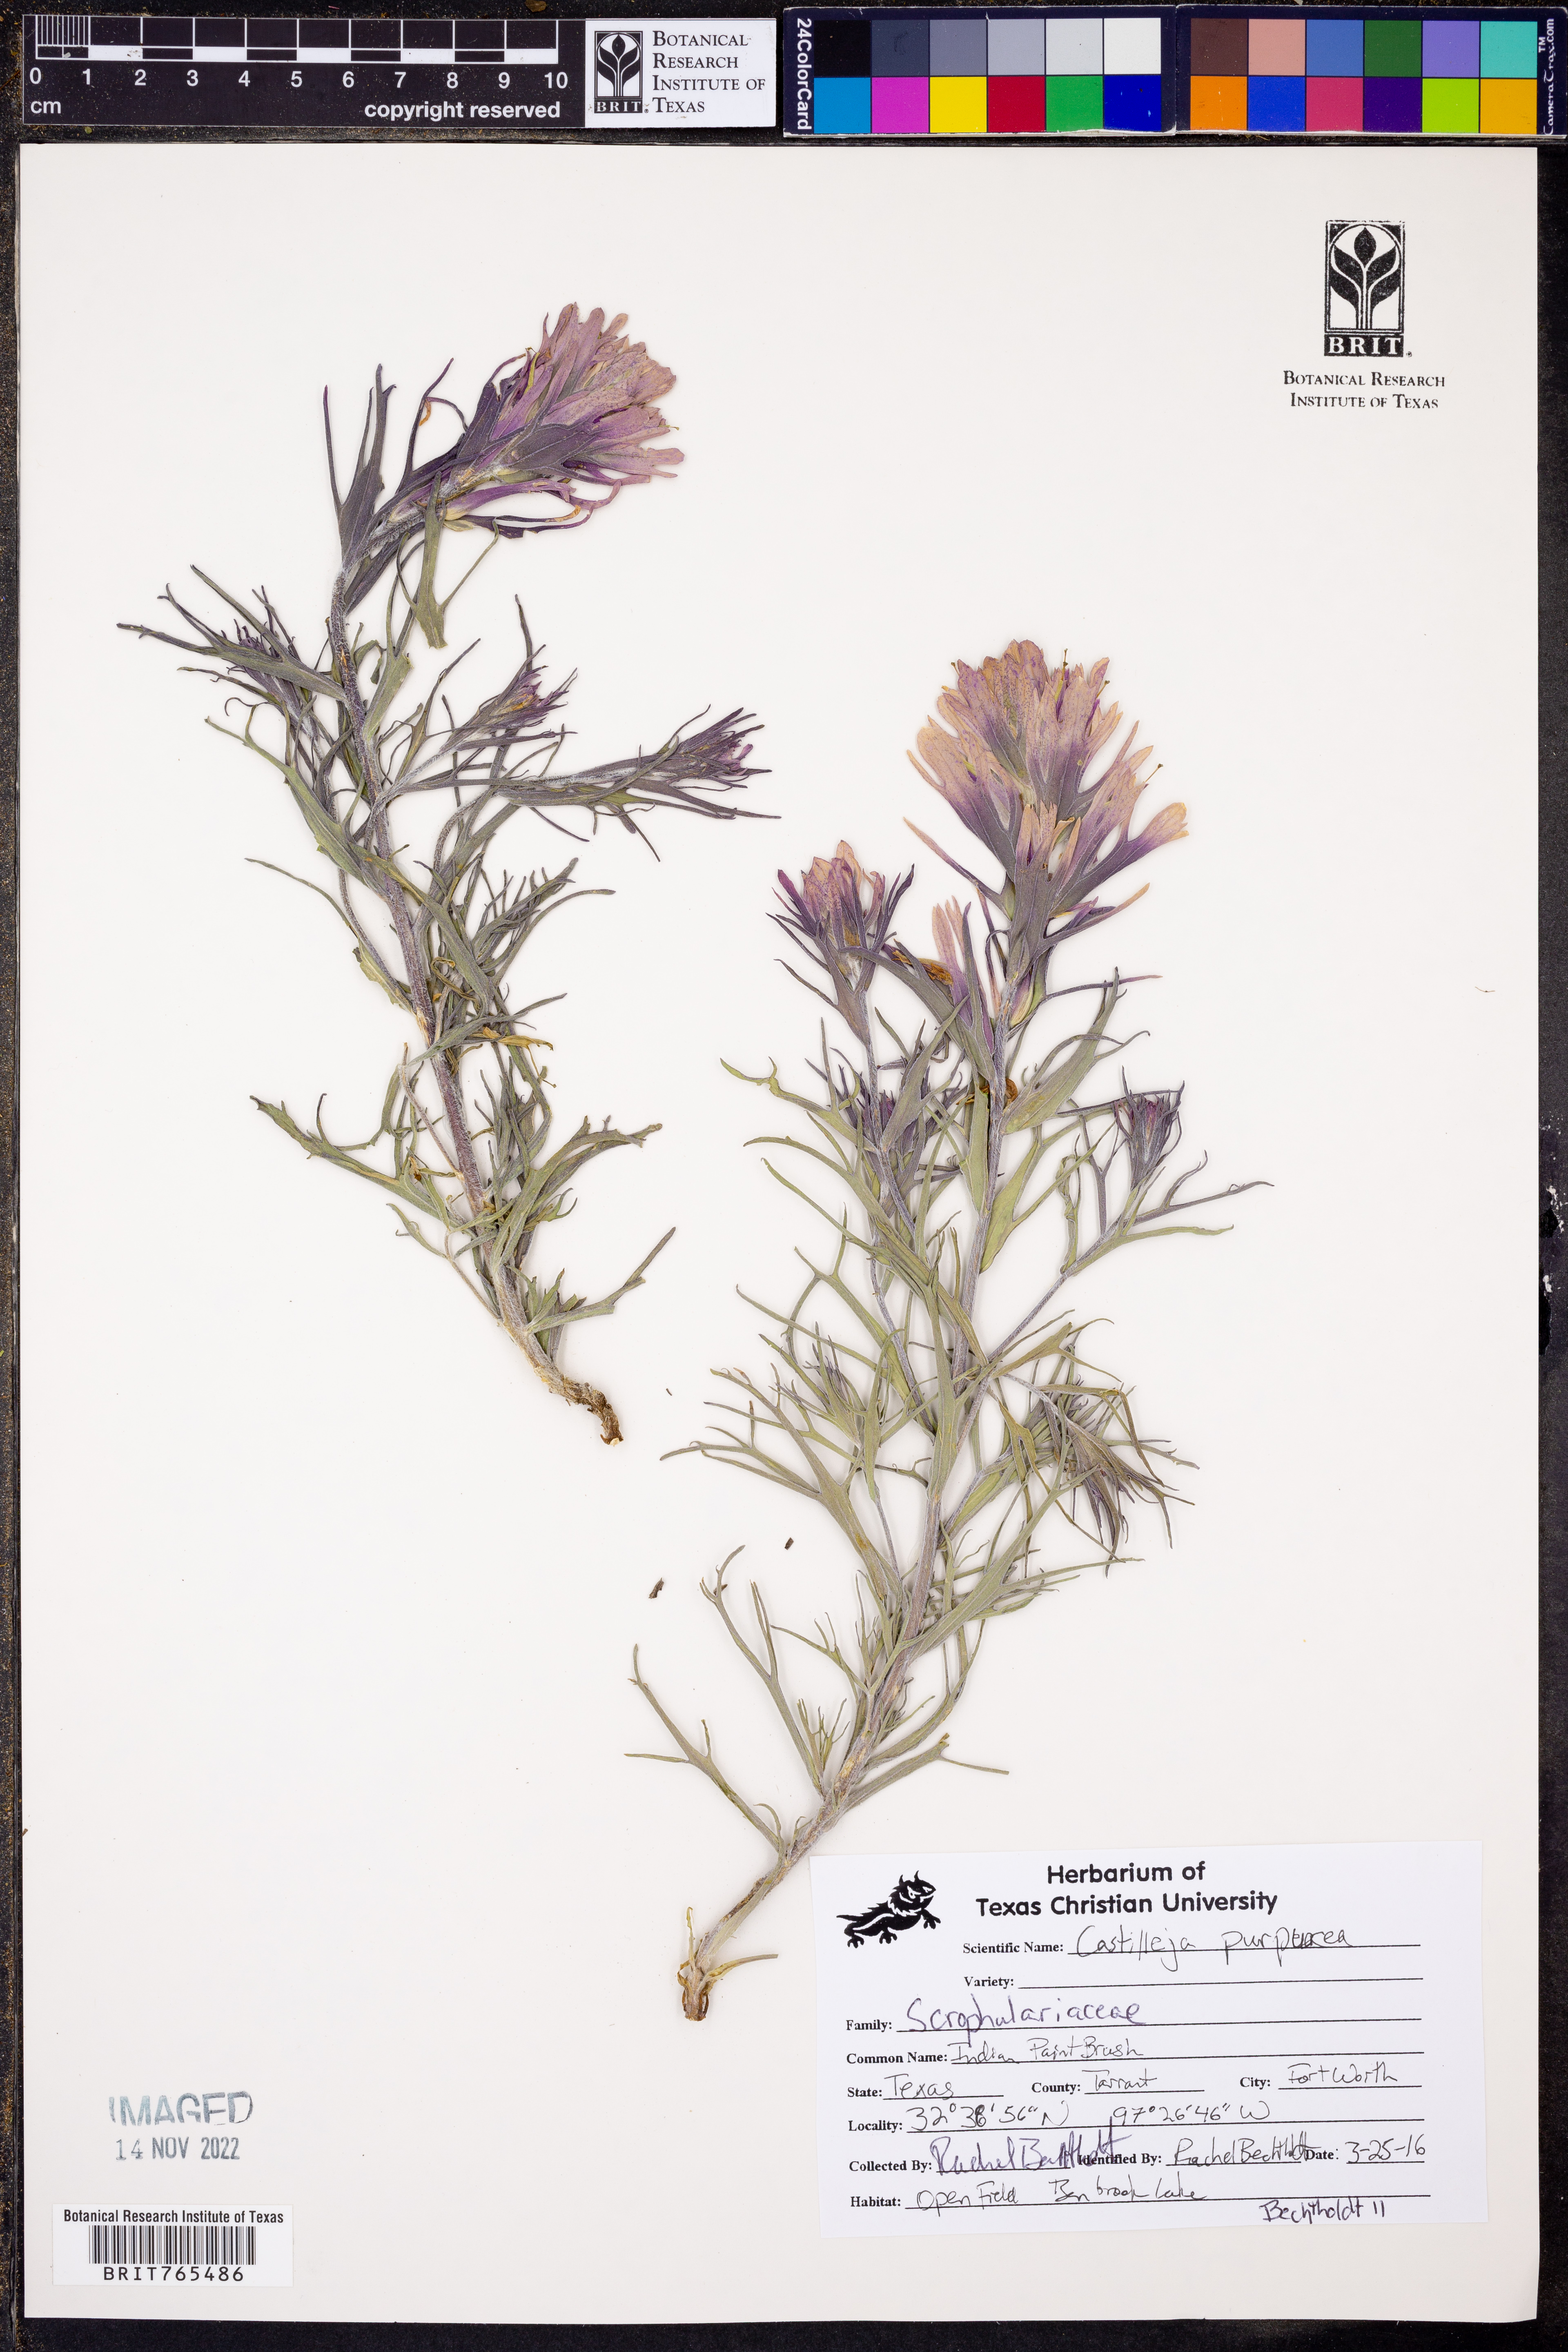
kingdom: Plantae
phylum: Tracheophyta
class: Magnoliopsida
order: Lamiales
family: Orobanchaceae
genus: Castilleja
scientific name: Castilleja purpurea
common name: Plains paintbrush
